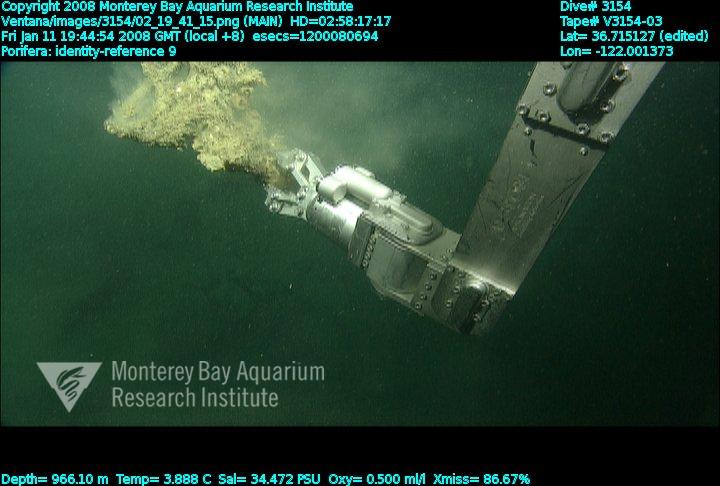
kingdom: Animalia
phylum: Porifera
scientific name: Porifera
